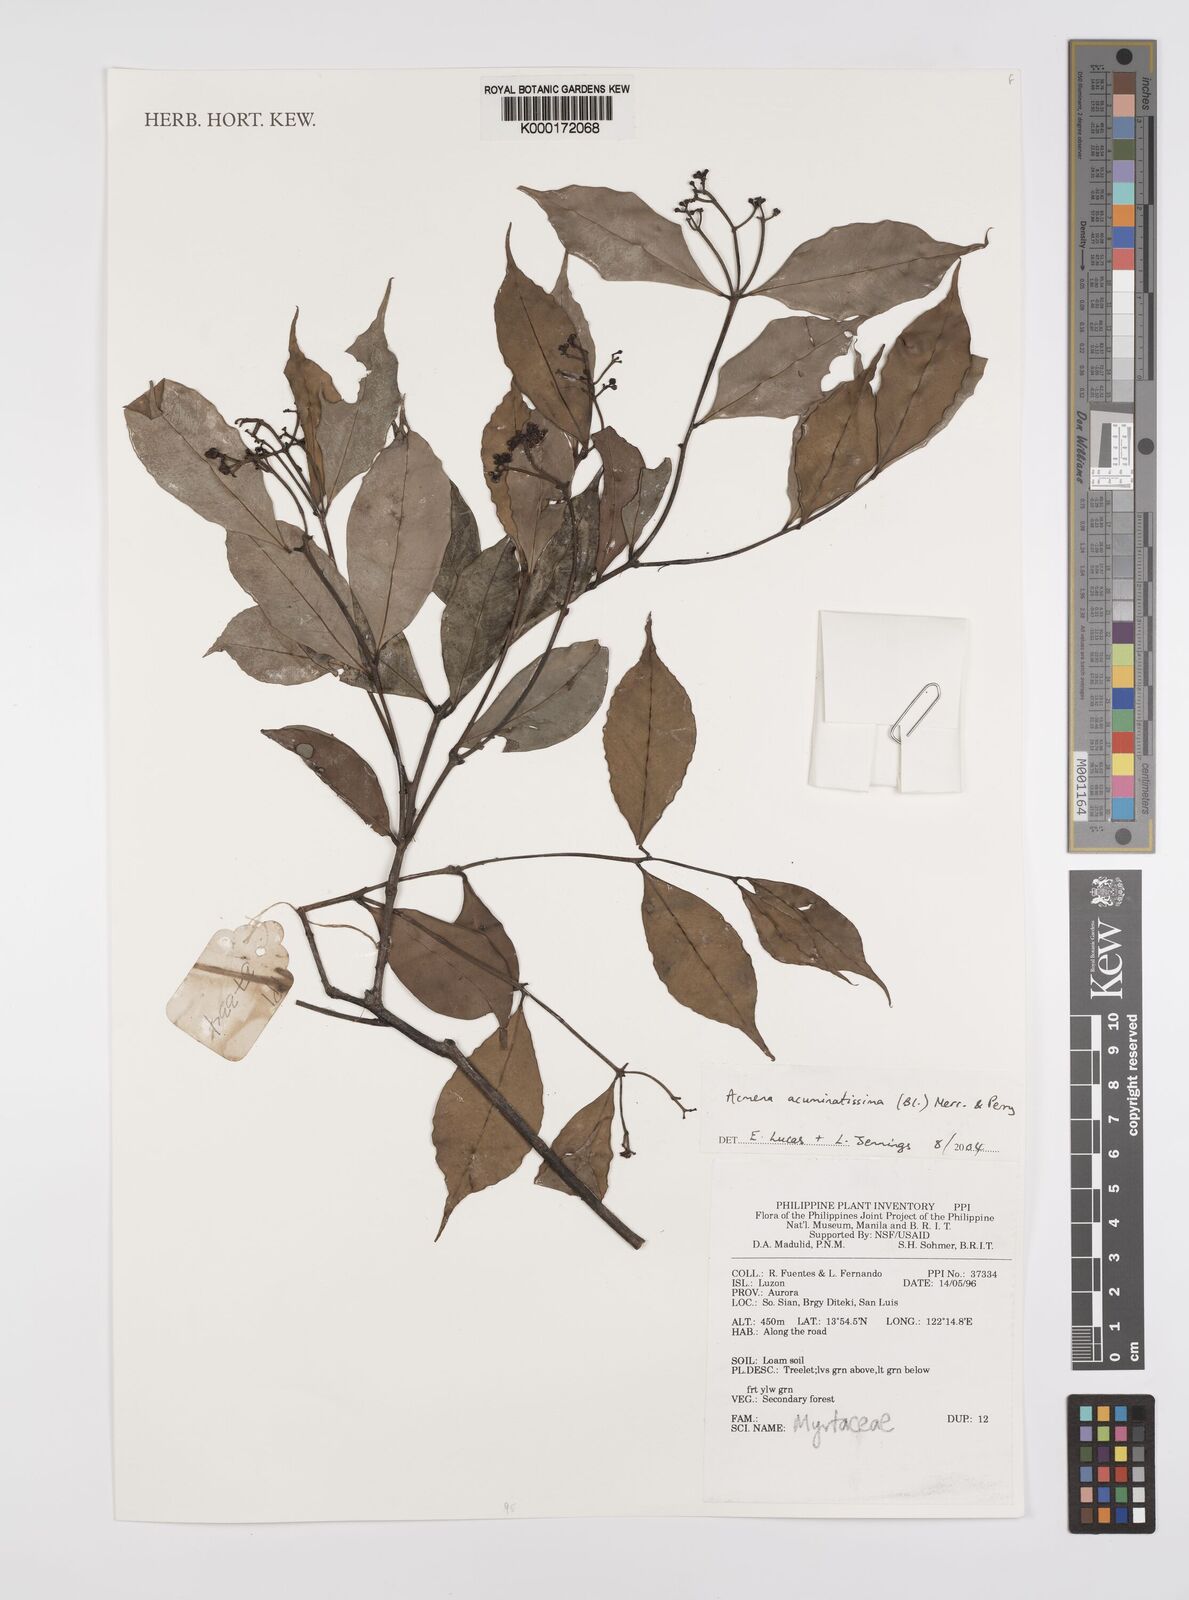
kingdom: Plantae
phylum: Tracheophyta
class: Magnoliopsida
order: Myrtales
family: Myrtaceae
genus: Syzygium
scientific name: Syzygium acuminatissimum
